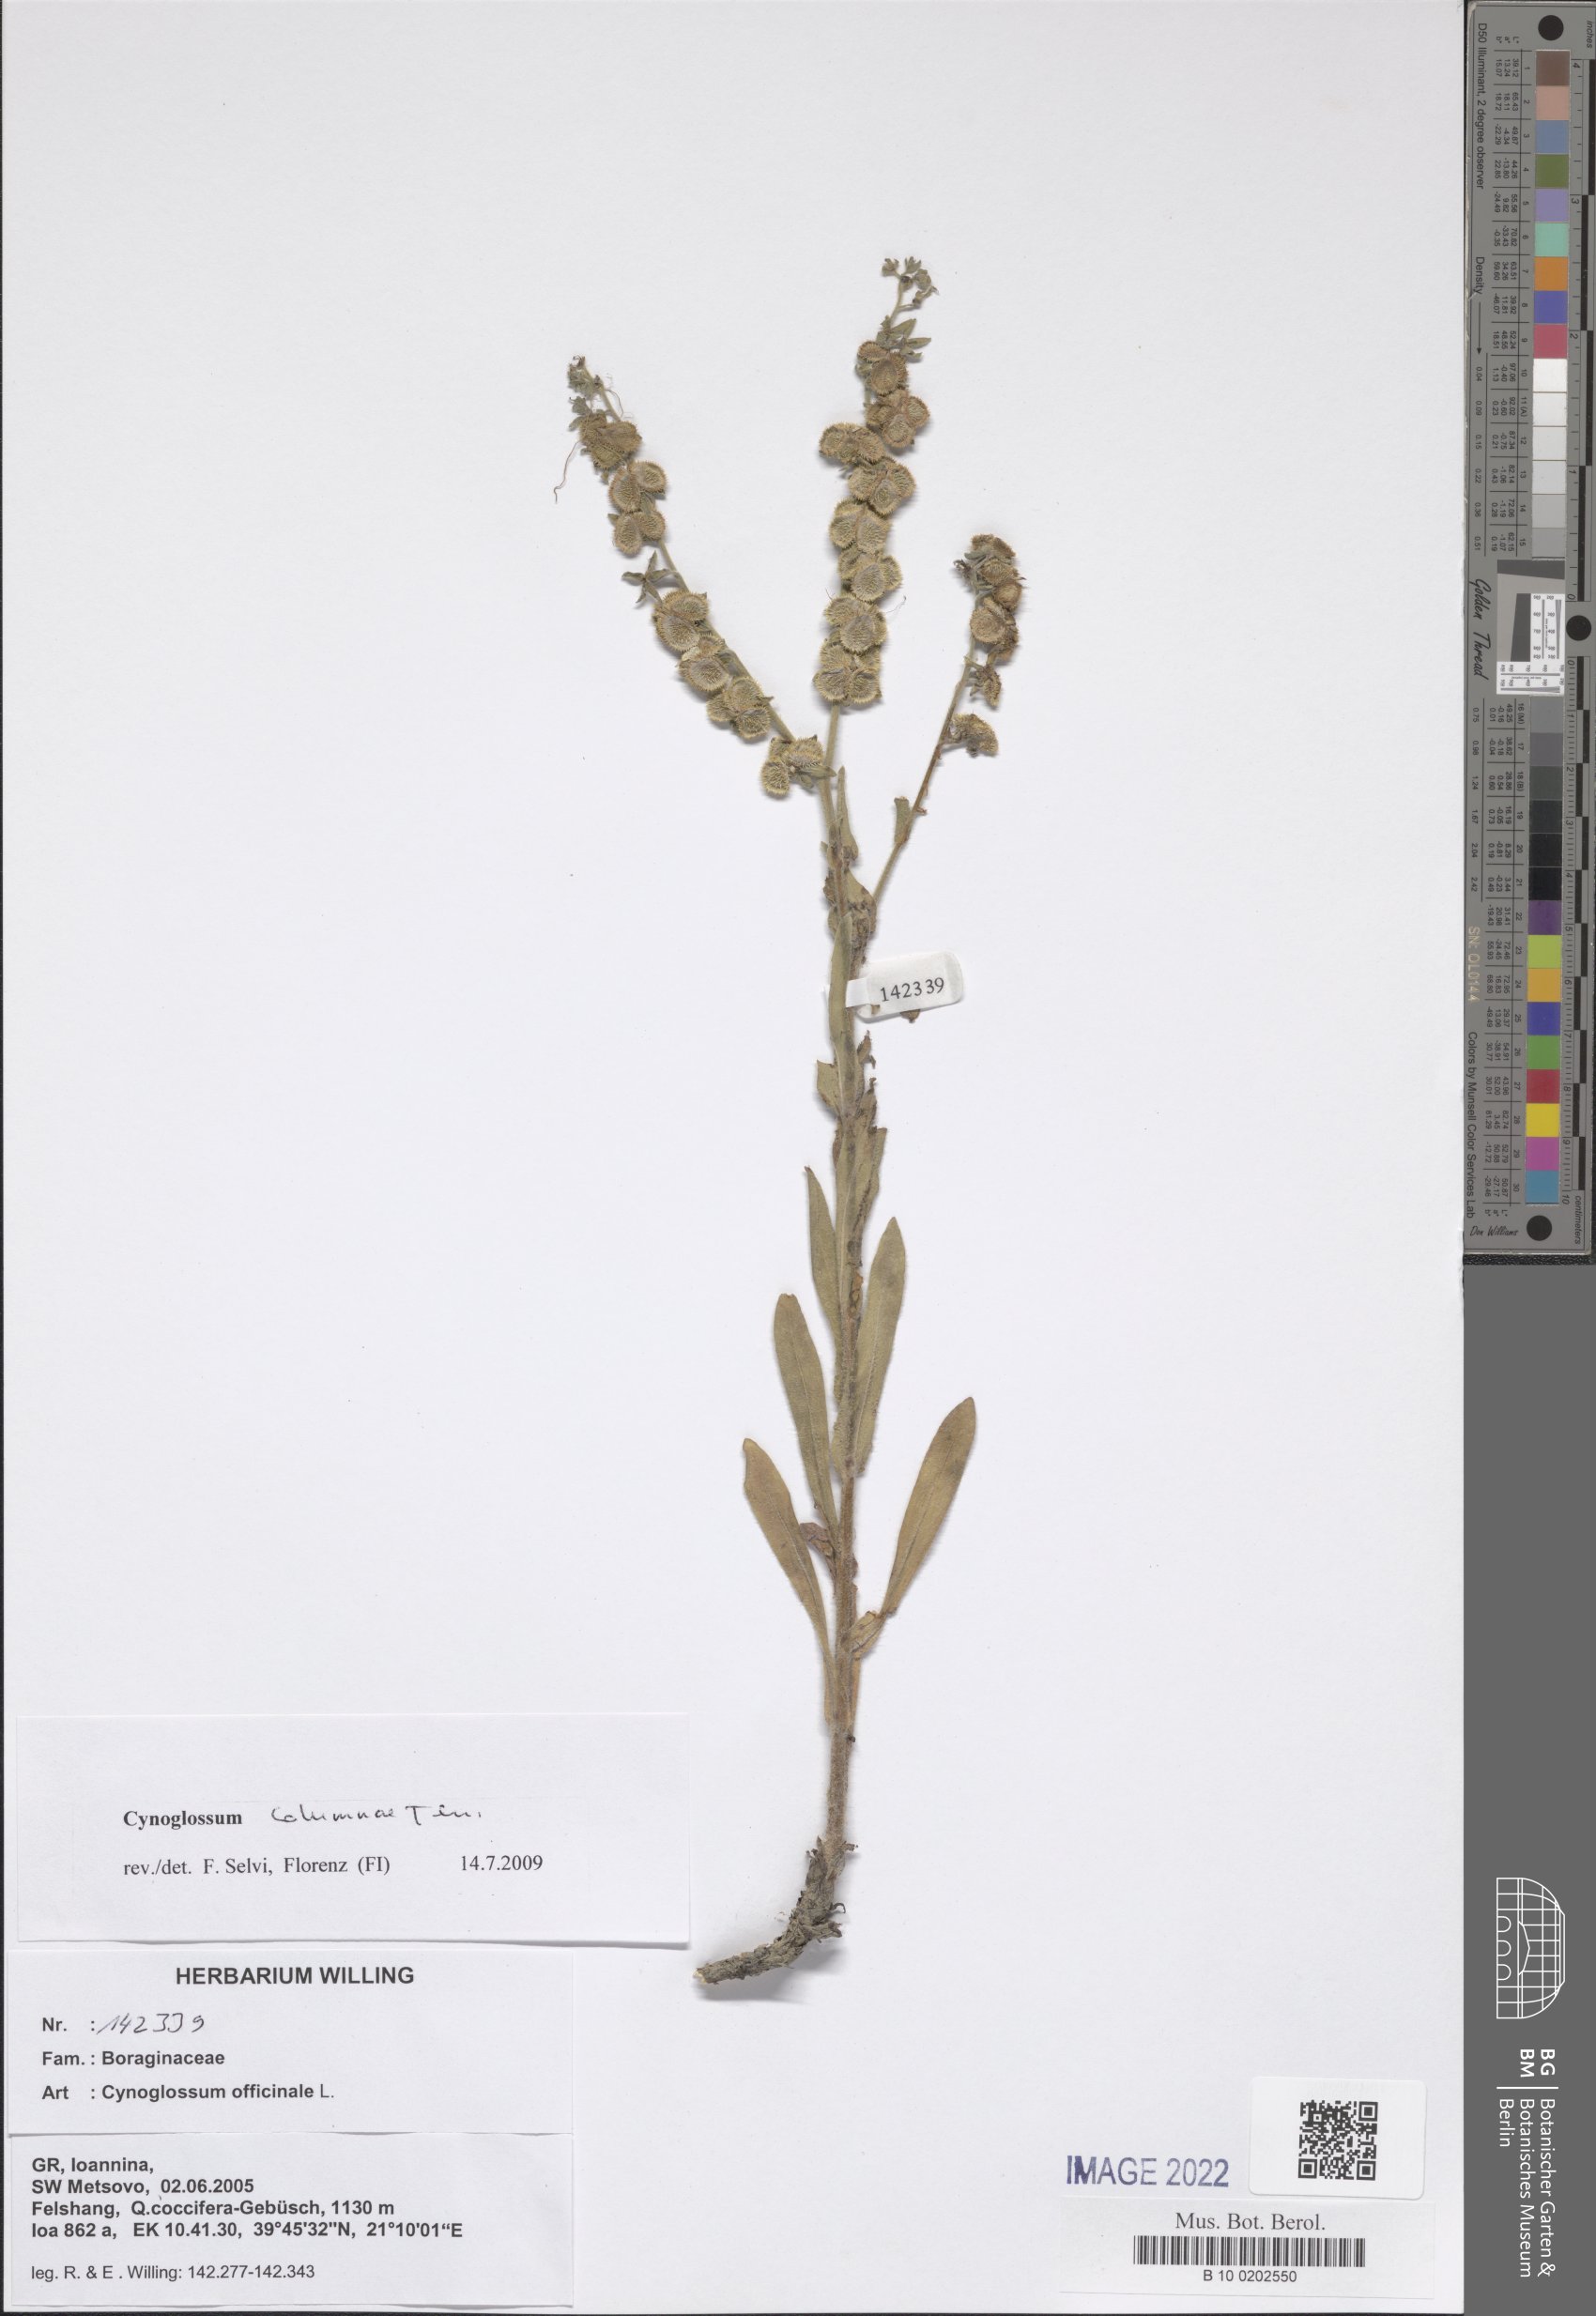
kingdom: Plantae
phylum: Tracheophyta
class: Magnoliopsida
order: Boraginales
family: Boraginaceae
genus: Rindera
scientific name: Rindera columnae
